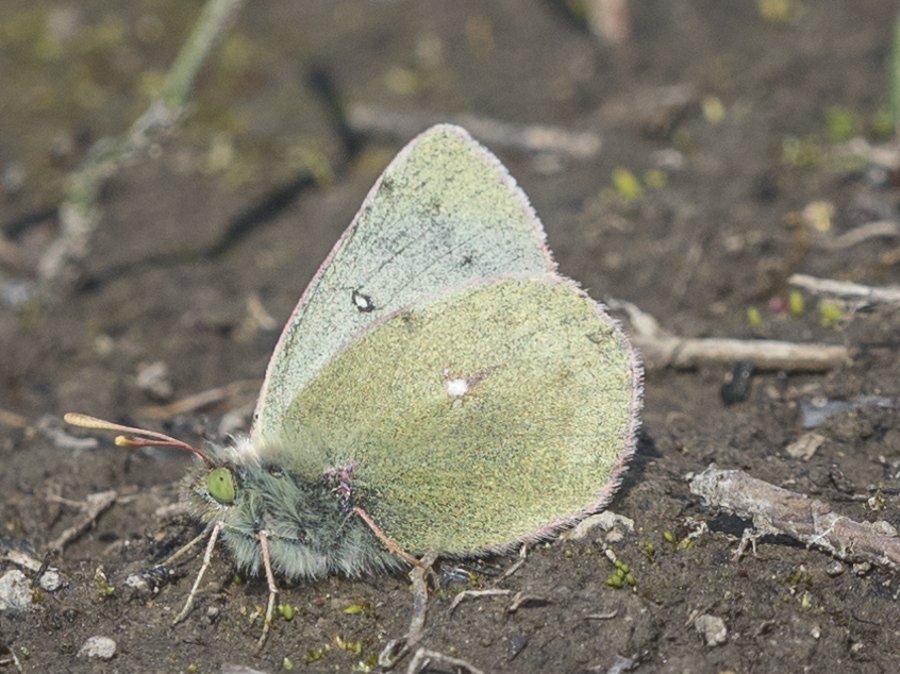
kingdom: Animalia
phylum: Arthropoda
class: Insecta
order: Lepidoptera
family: Pieridae
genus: Colias
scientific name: Colias nastes
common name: Labrador Sulphur
